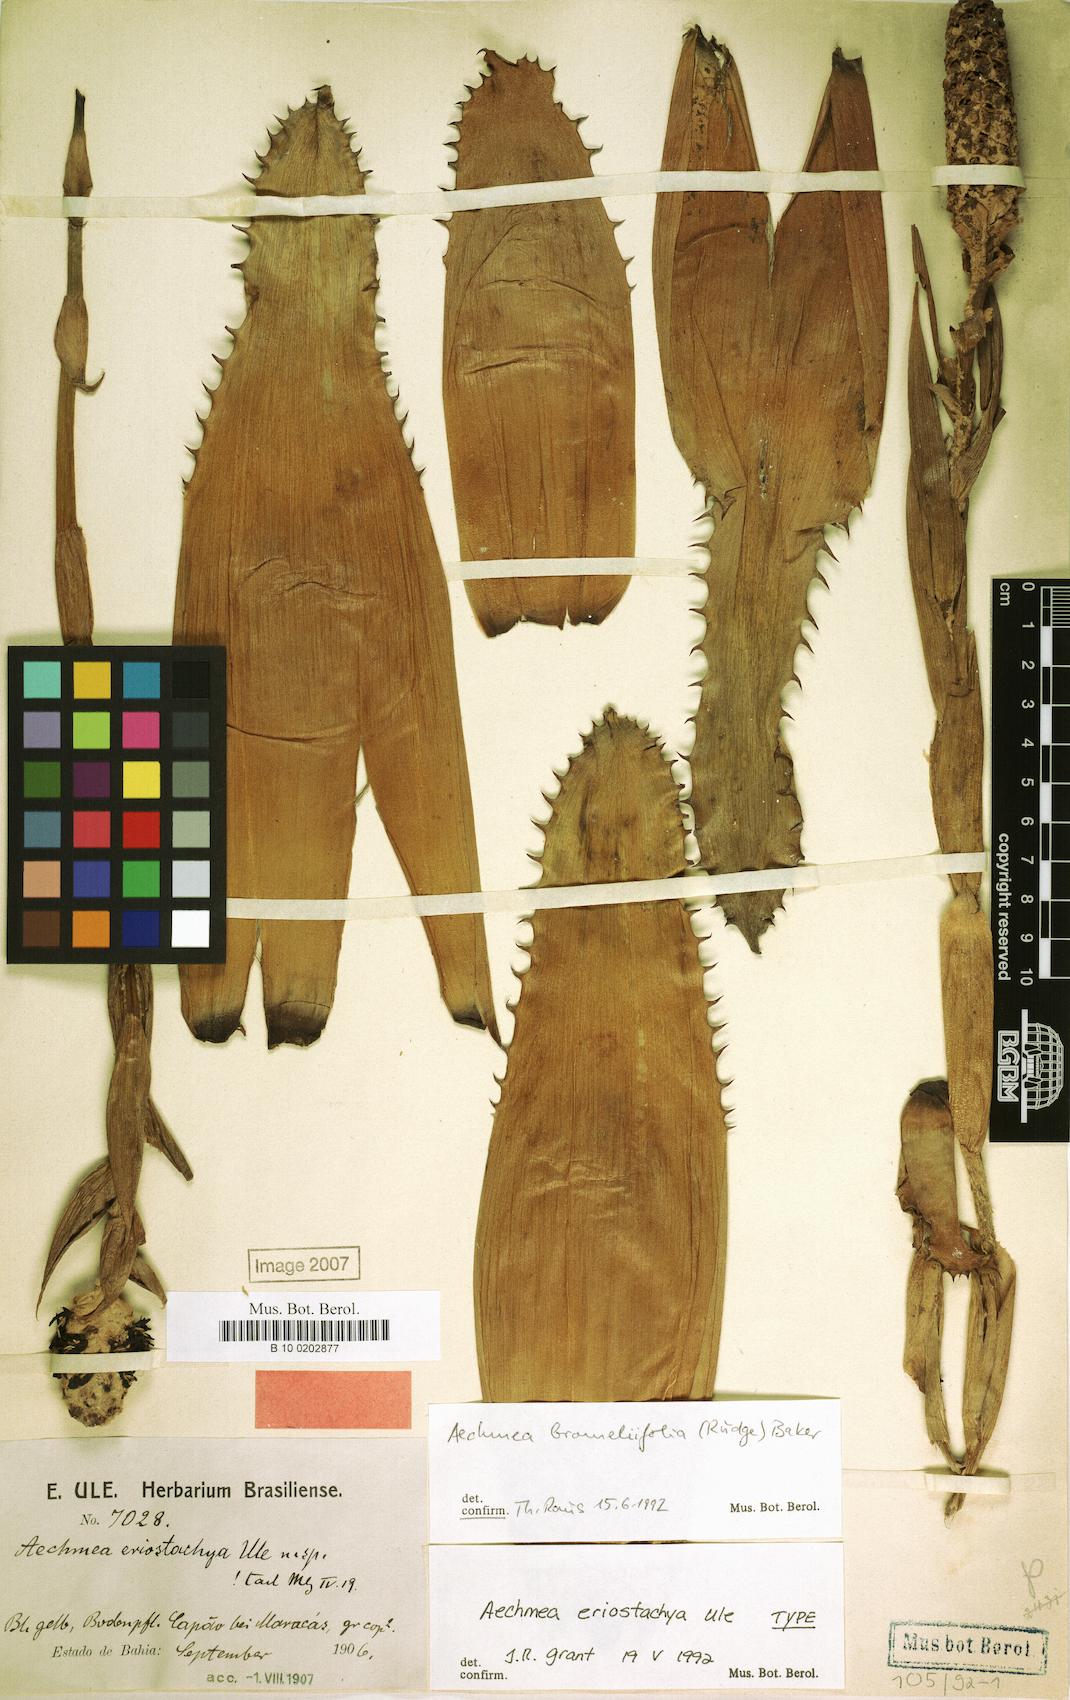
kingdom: Plantae
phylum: Tracheophyta
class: Liliopsida
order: Poales
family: Bromeliaceae
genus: Aechmea
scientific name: Aechmea bromeliifolia
